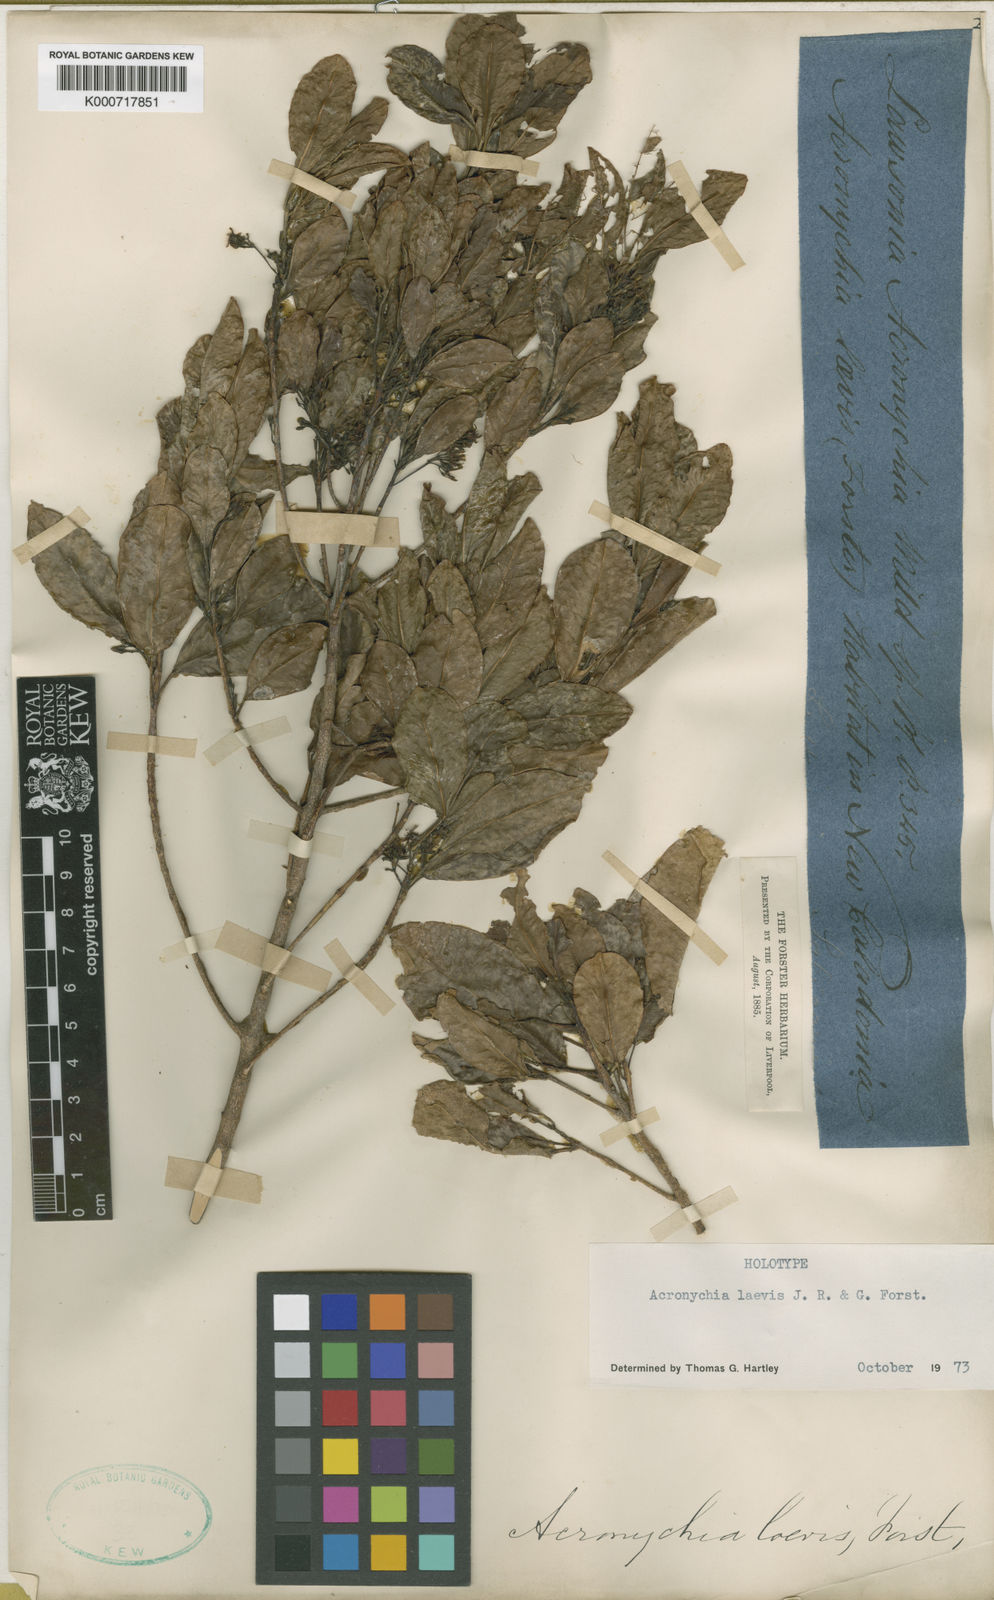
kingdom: Plantae
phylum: Tracheophyta
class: Magnoliopsida
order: Sapindales
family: Rutaceae
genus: Acronychia
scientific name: Acronychia laevis
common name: Hard aspen
